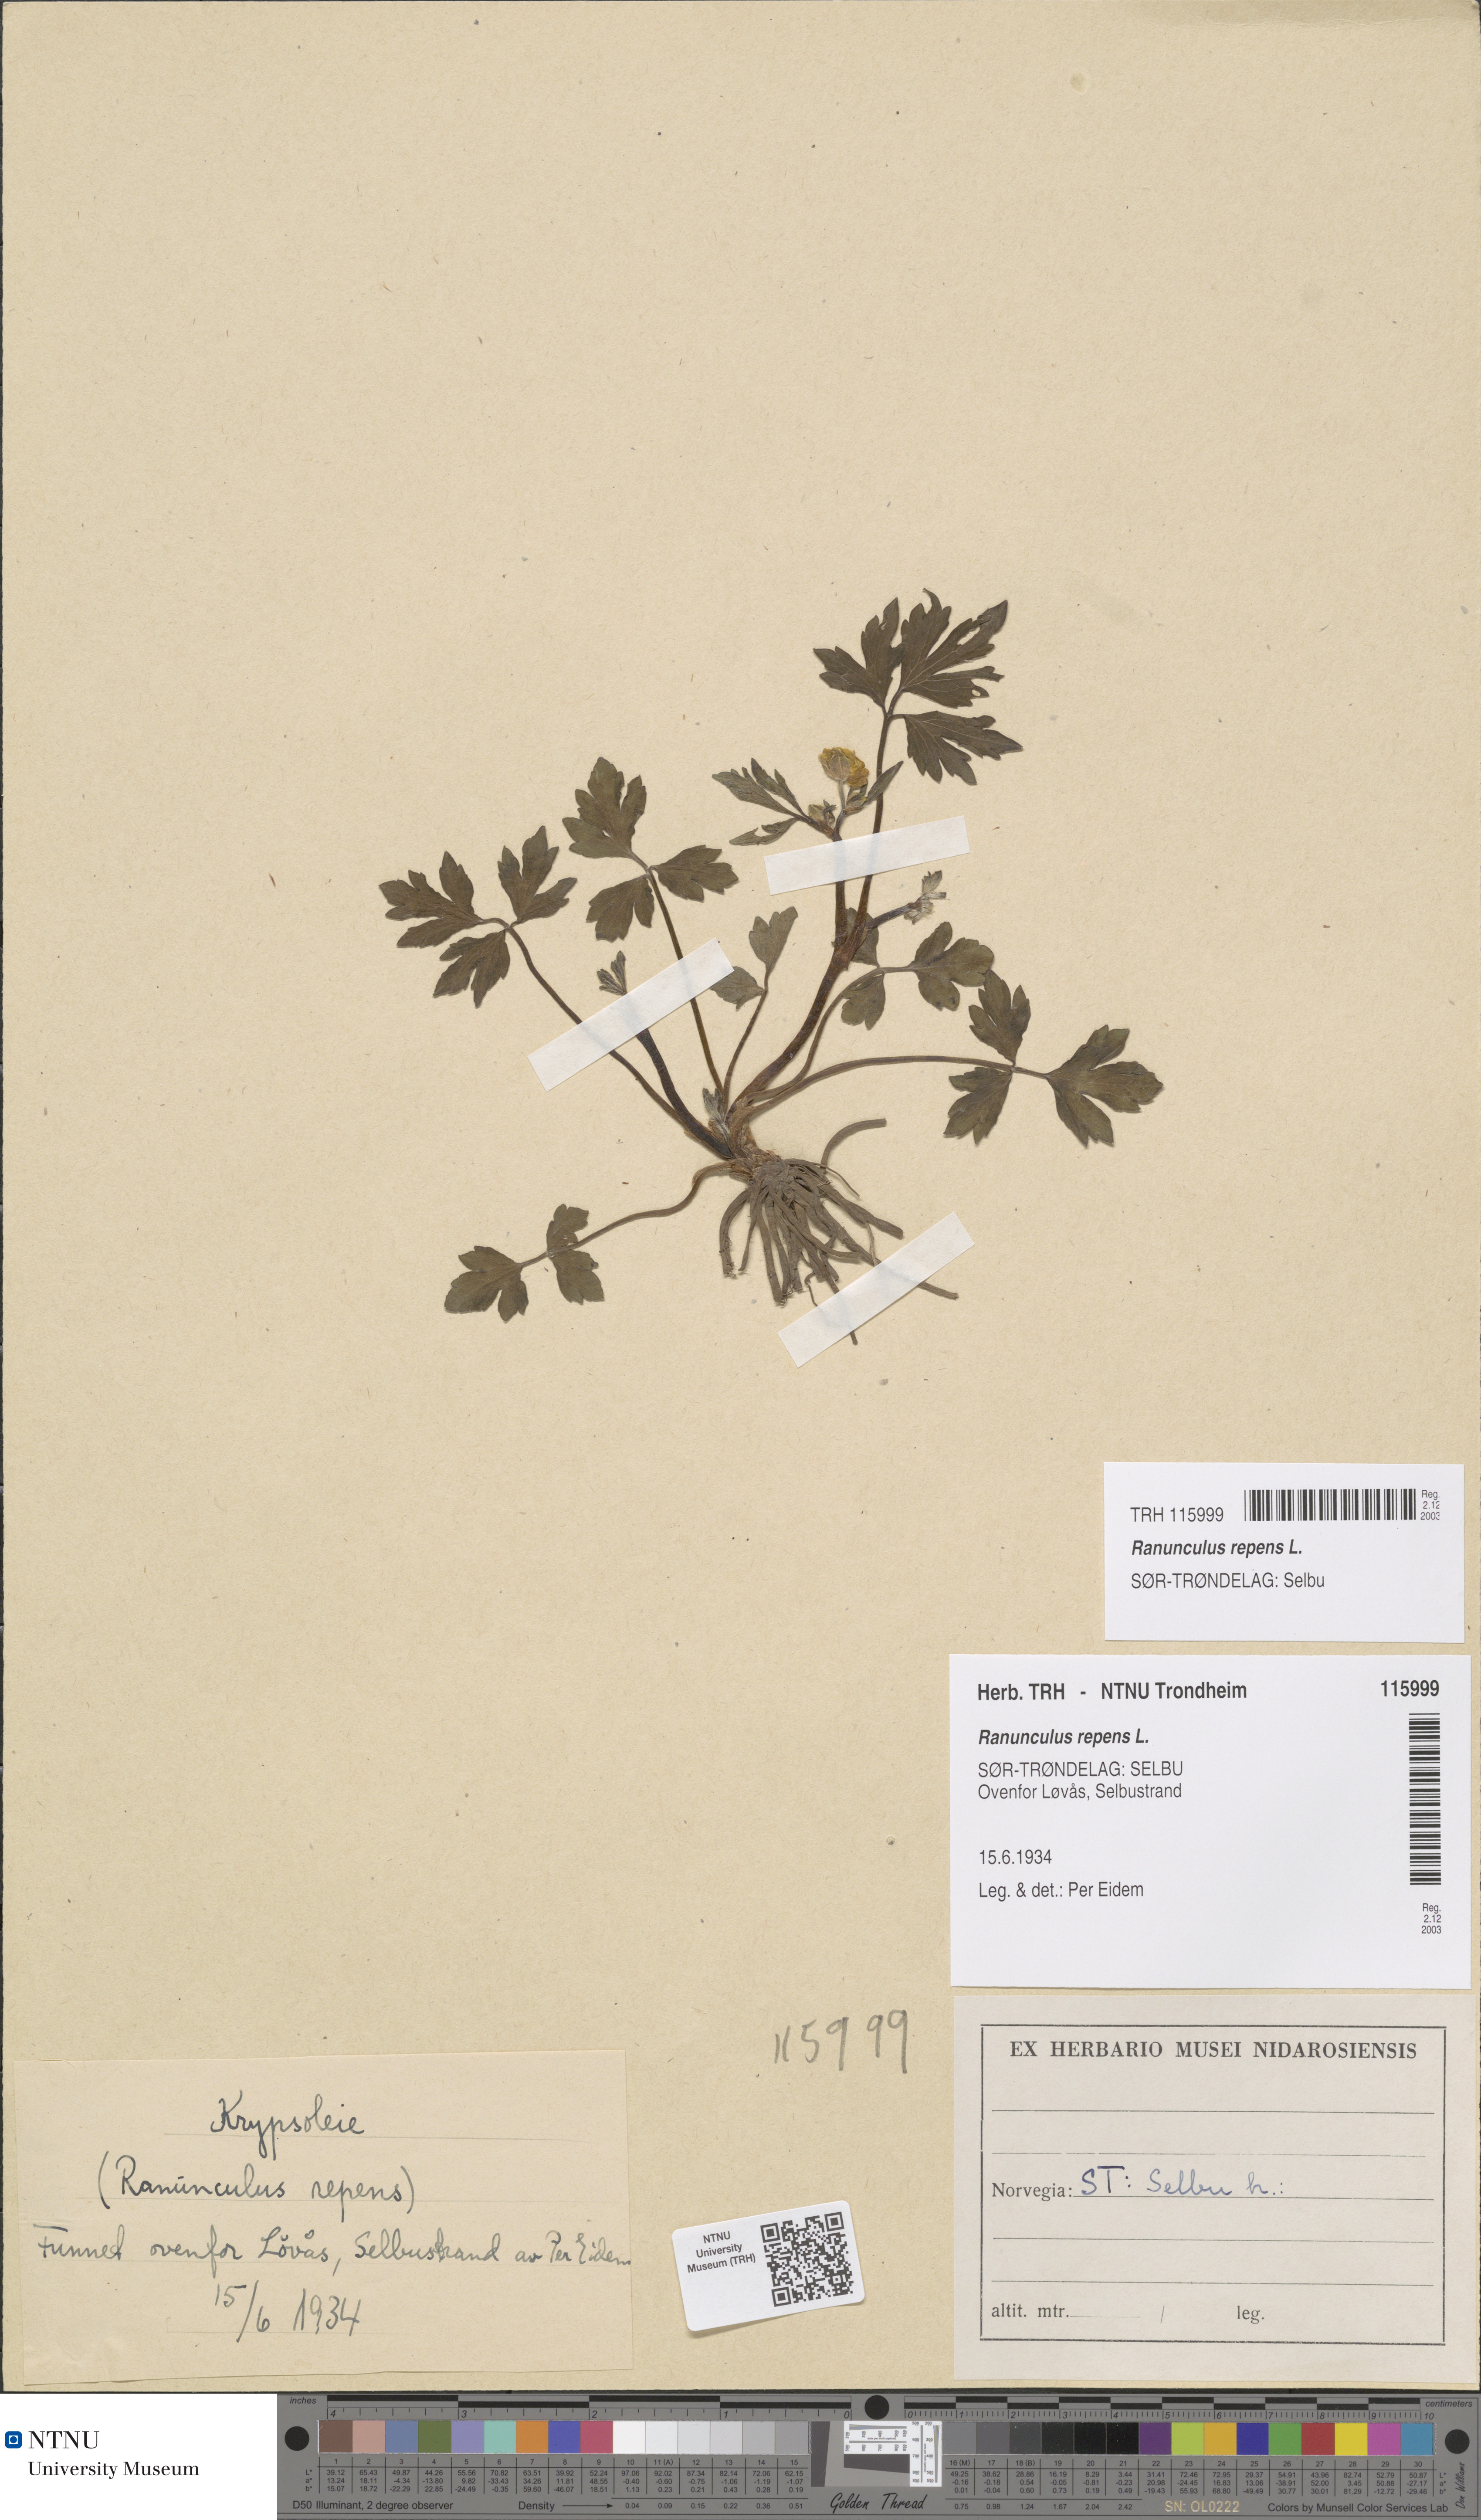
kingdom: Plantae
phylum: Tracheophyta
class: Magnoliopsida
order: Ranunculales
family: Ranunculaceae
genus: Ranunculus
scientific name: Ranunculus repens
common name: Creeping buttercup
